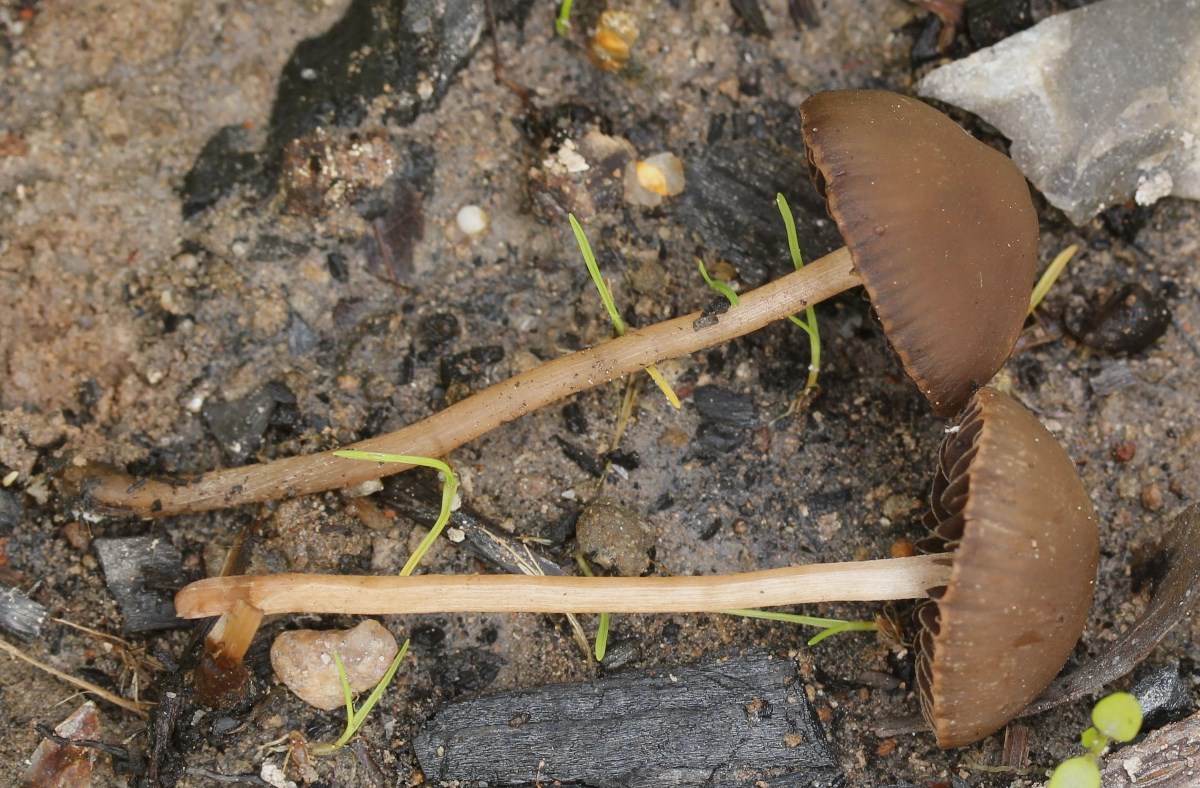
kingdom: Fungi
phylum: Basidiomycota
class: Agaricomycetes
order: Agaricales
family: Bolbitiaceae
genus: Panaeolina
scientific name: Panaeolina foenisecii
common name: høslætsvamp
